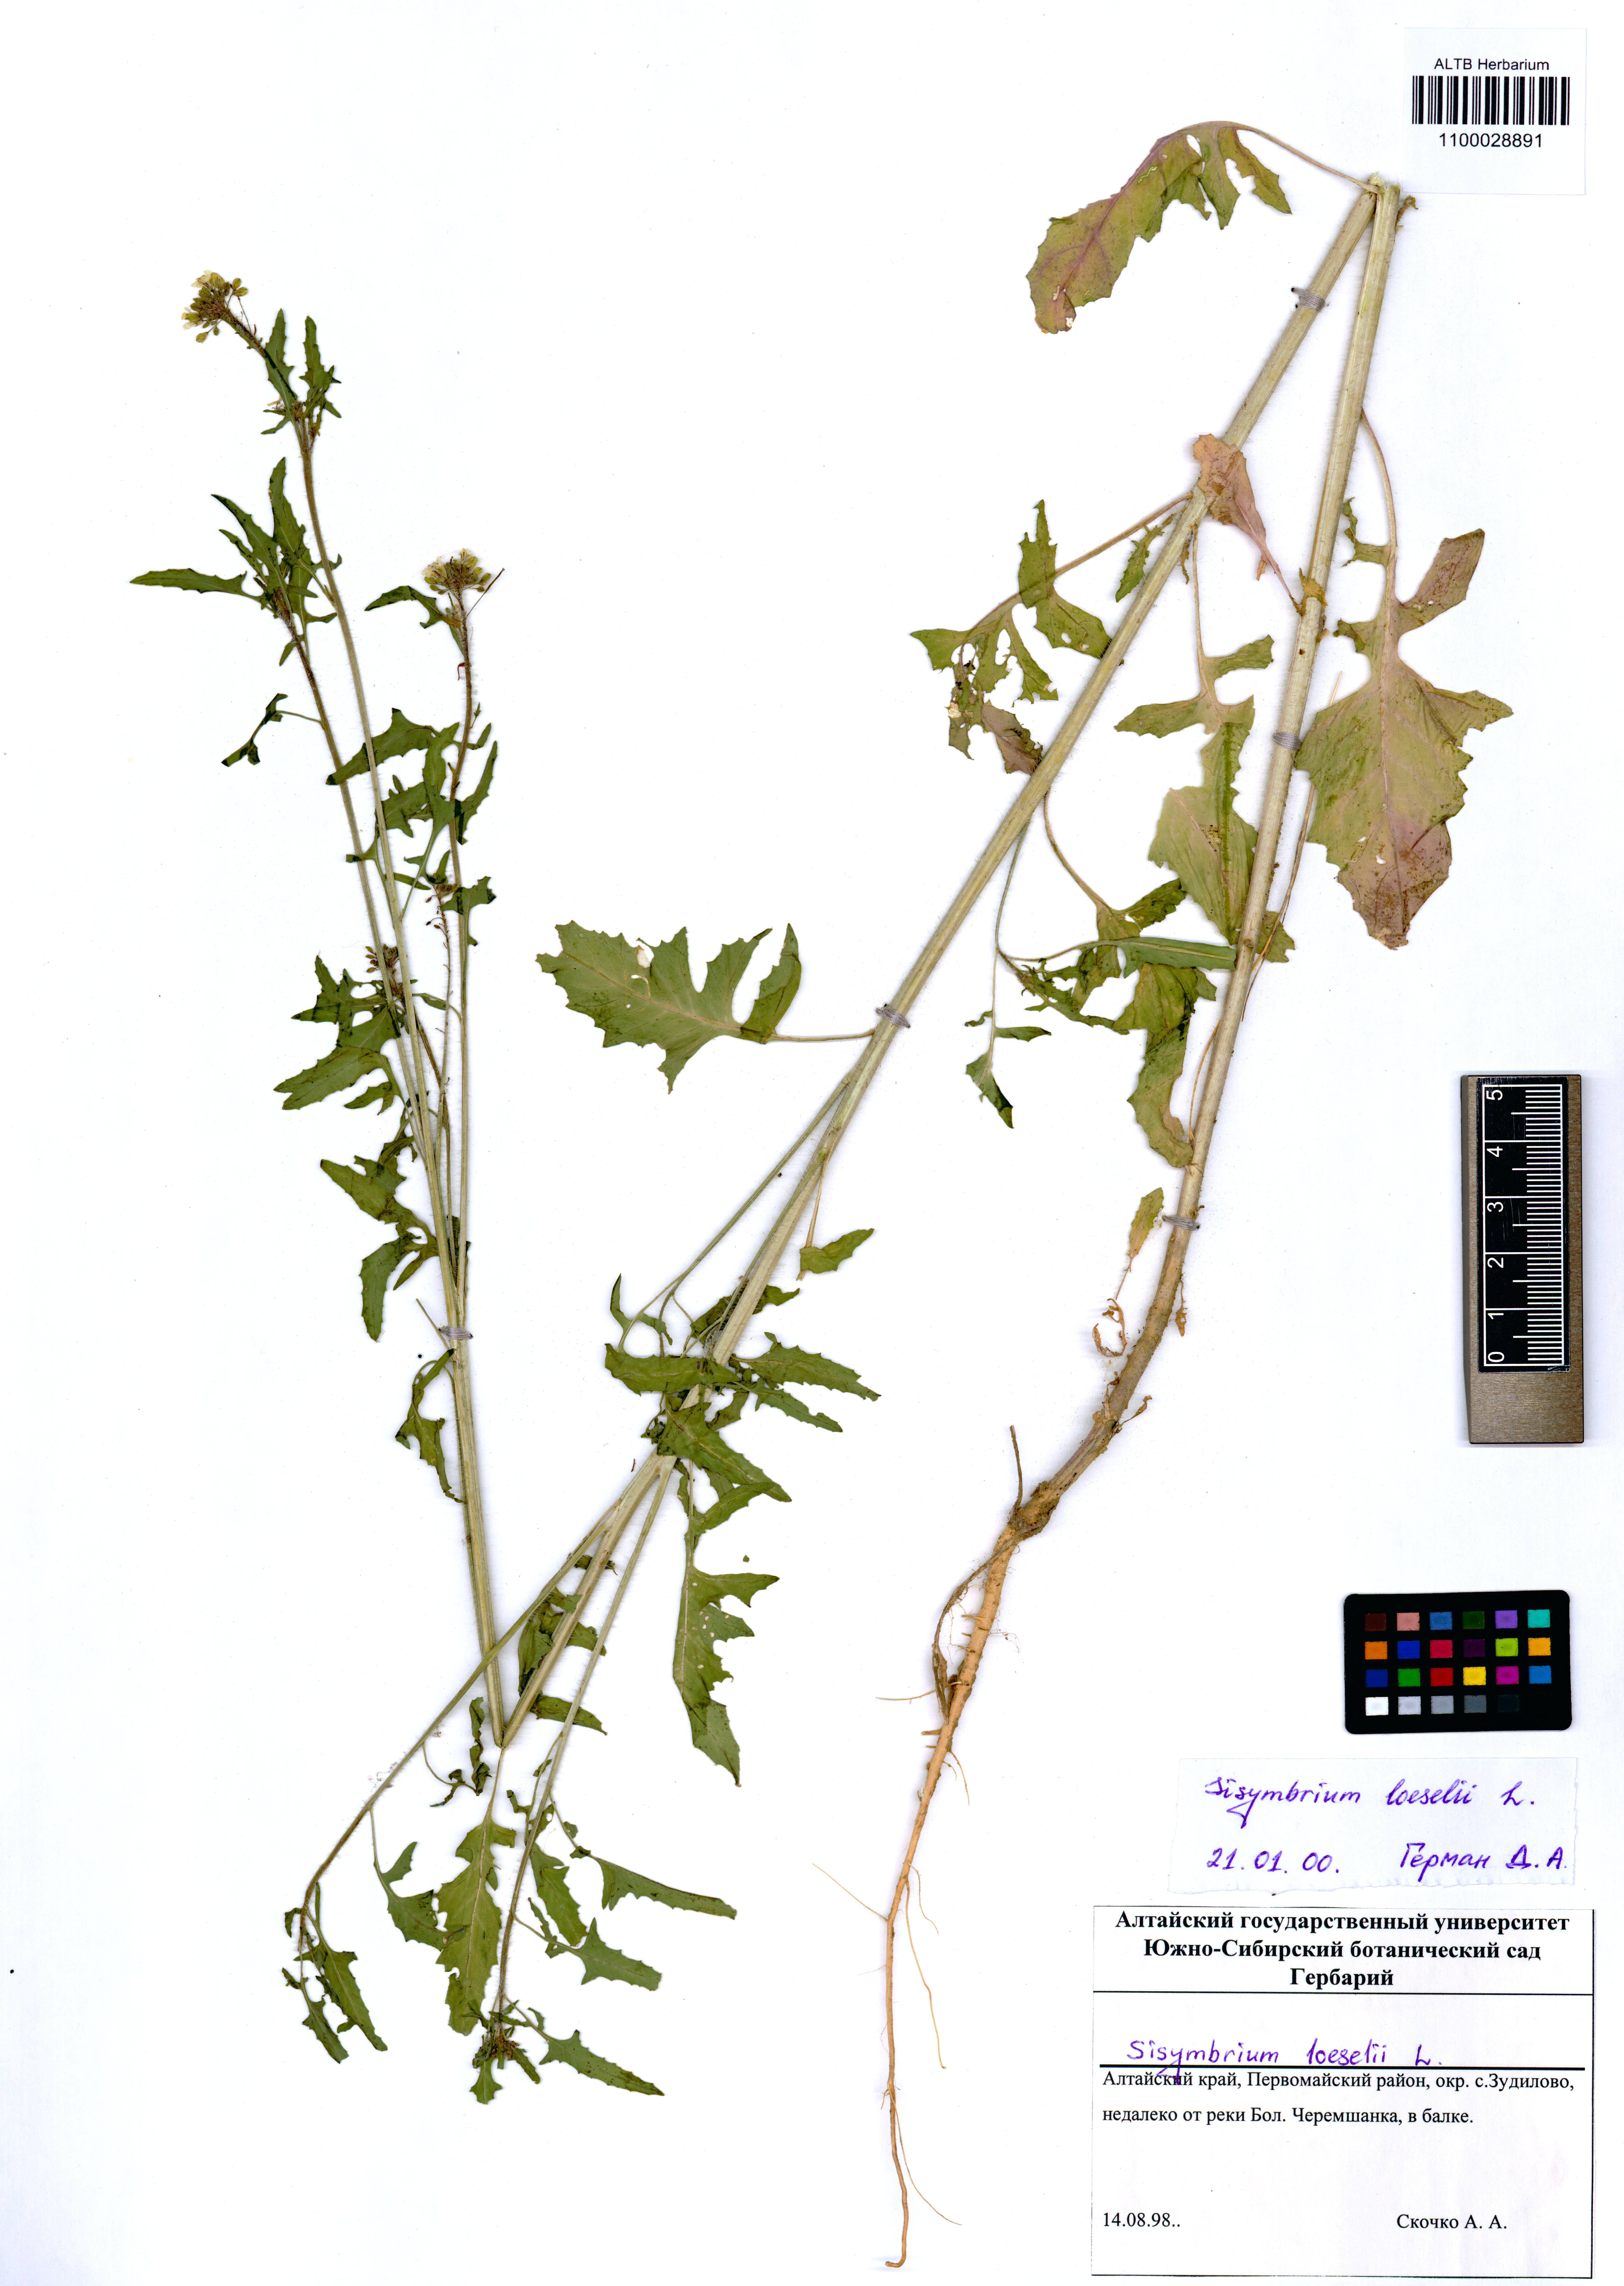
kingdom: Plantae
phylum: Tracheophyta
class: Magnoliopsida
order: Brassicales
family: Brassicaceae
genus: Sisymbrium
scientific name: Sisymbrium loeselii
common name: False london-rocket
